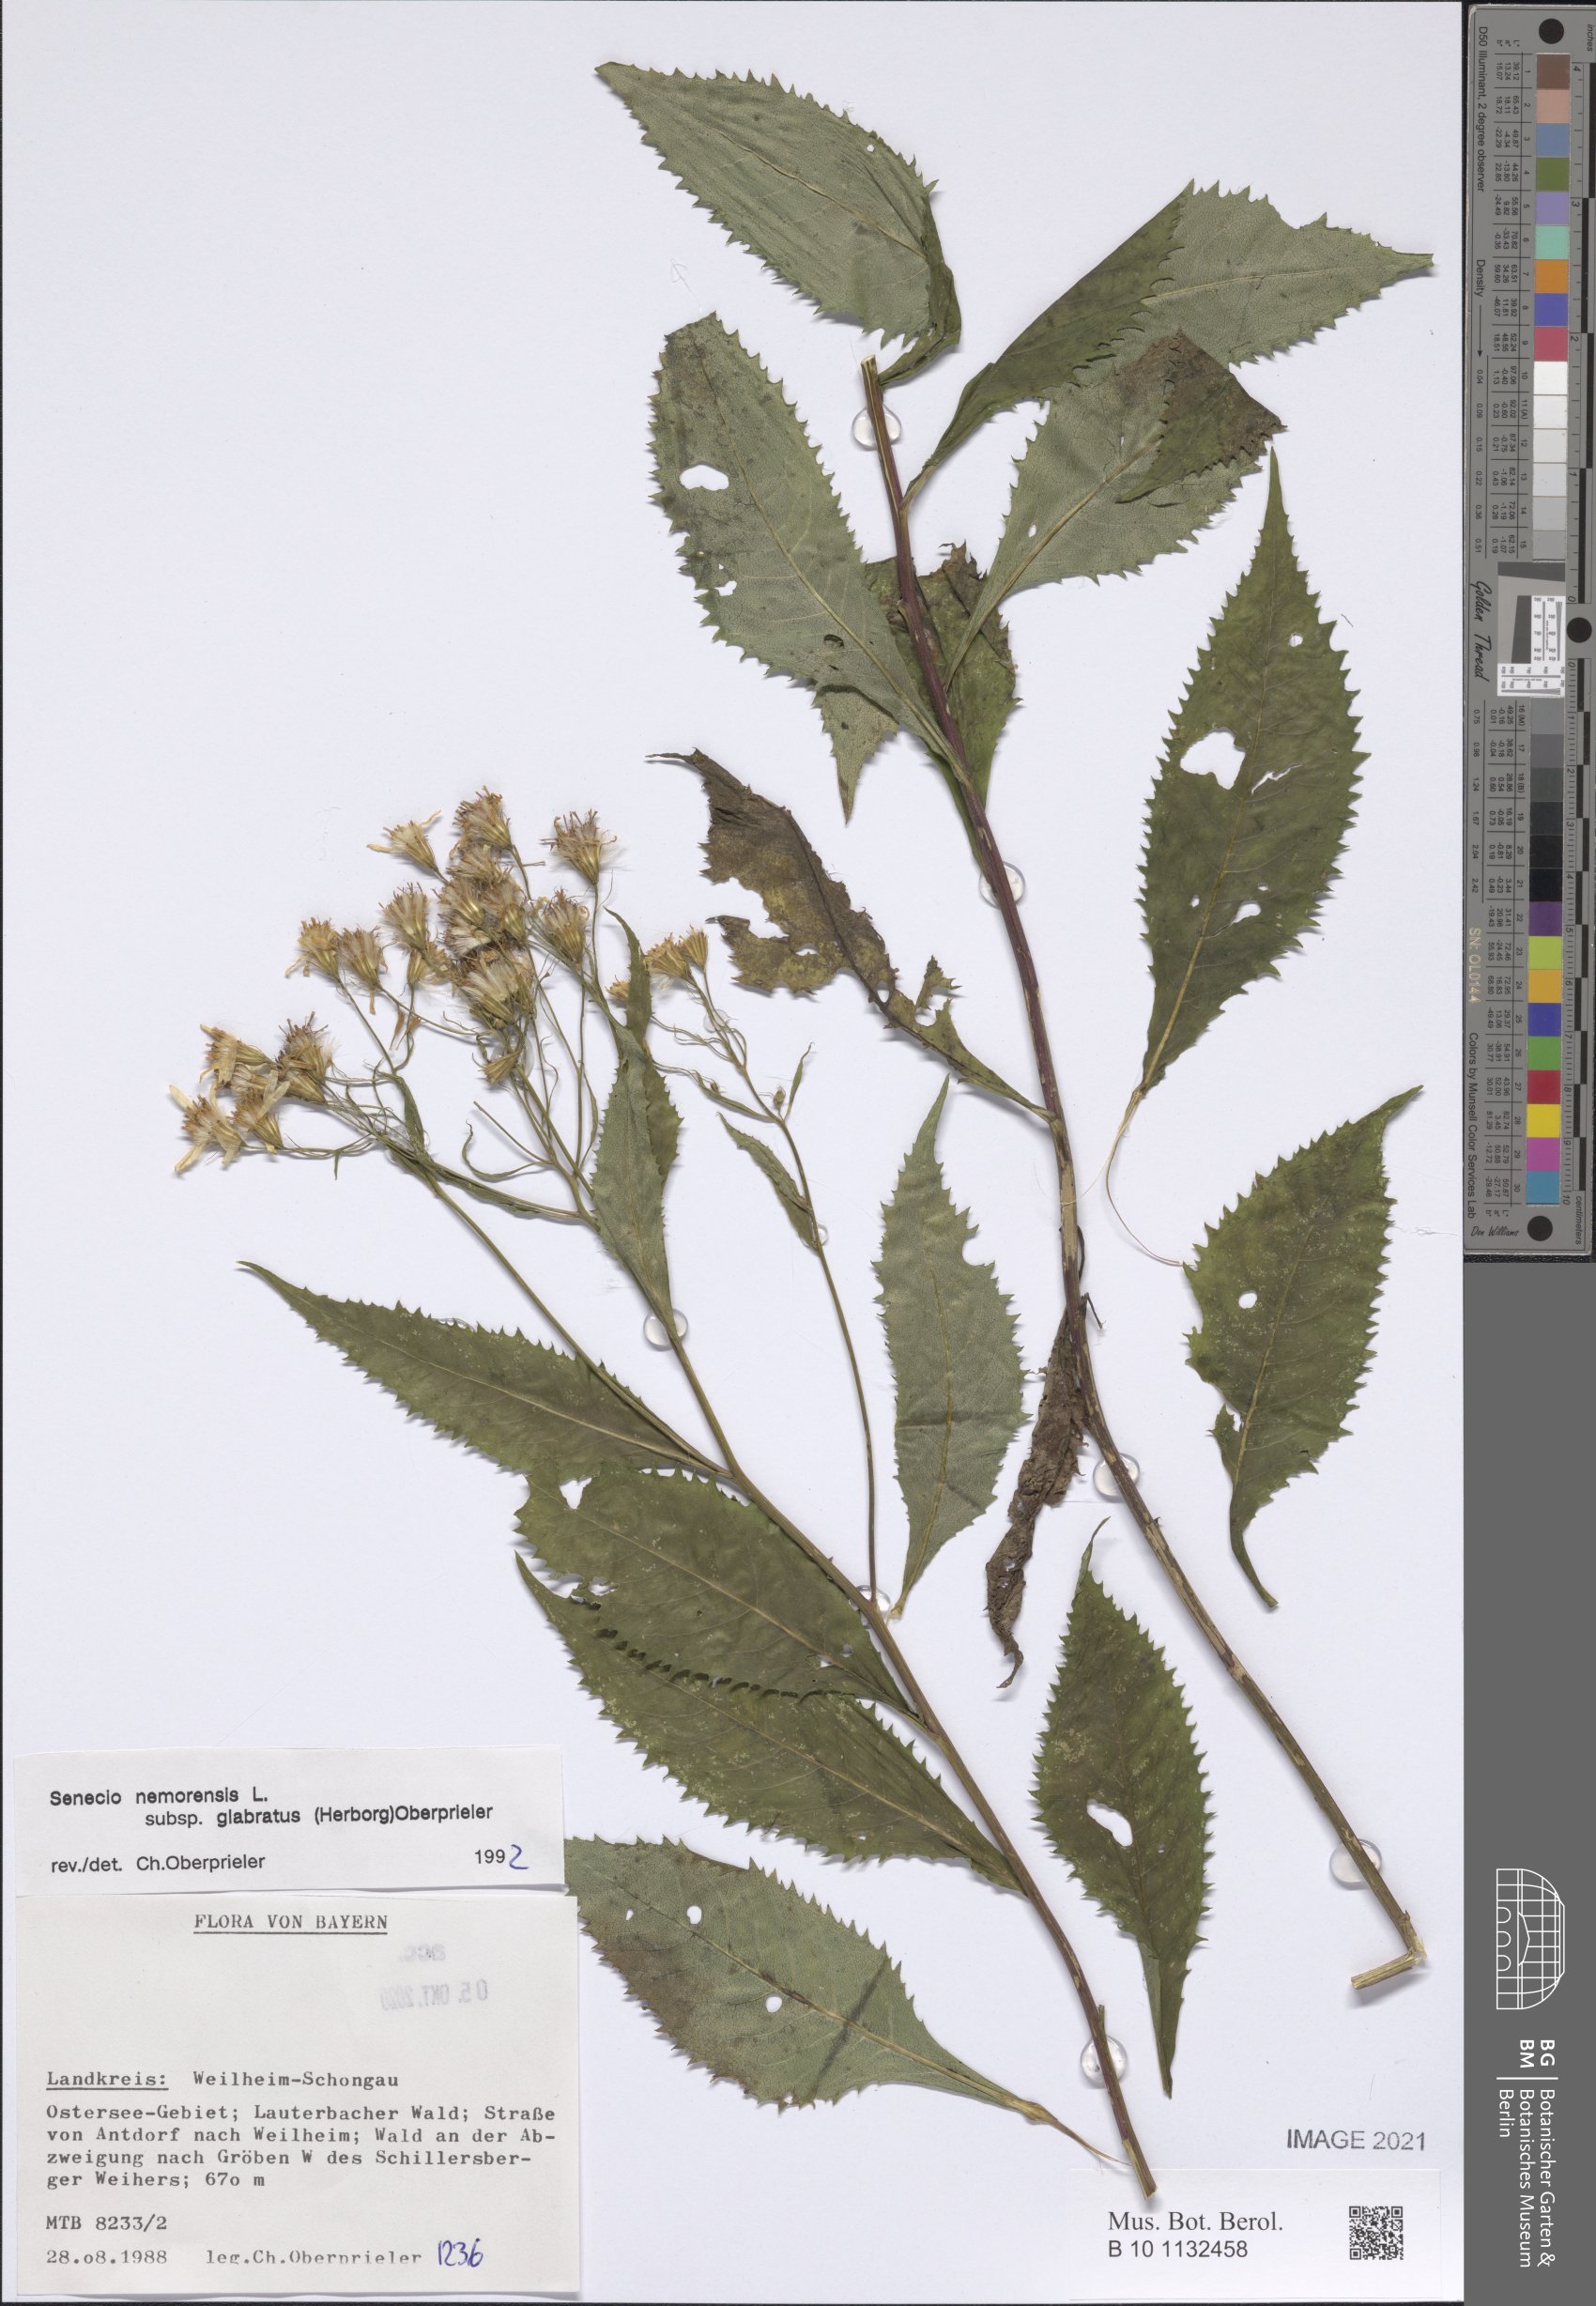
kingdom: Plantae
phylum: Tracheophyta
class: Magnoliopsida
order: Asterales
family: Asteraceae
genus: Senecio
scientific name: Senecio germanicus
